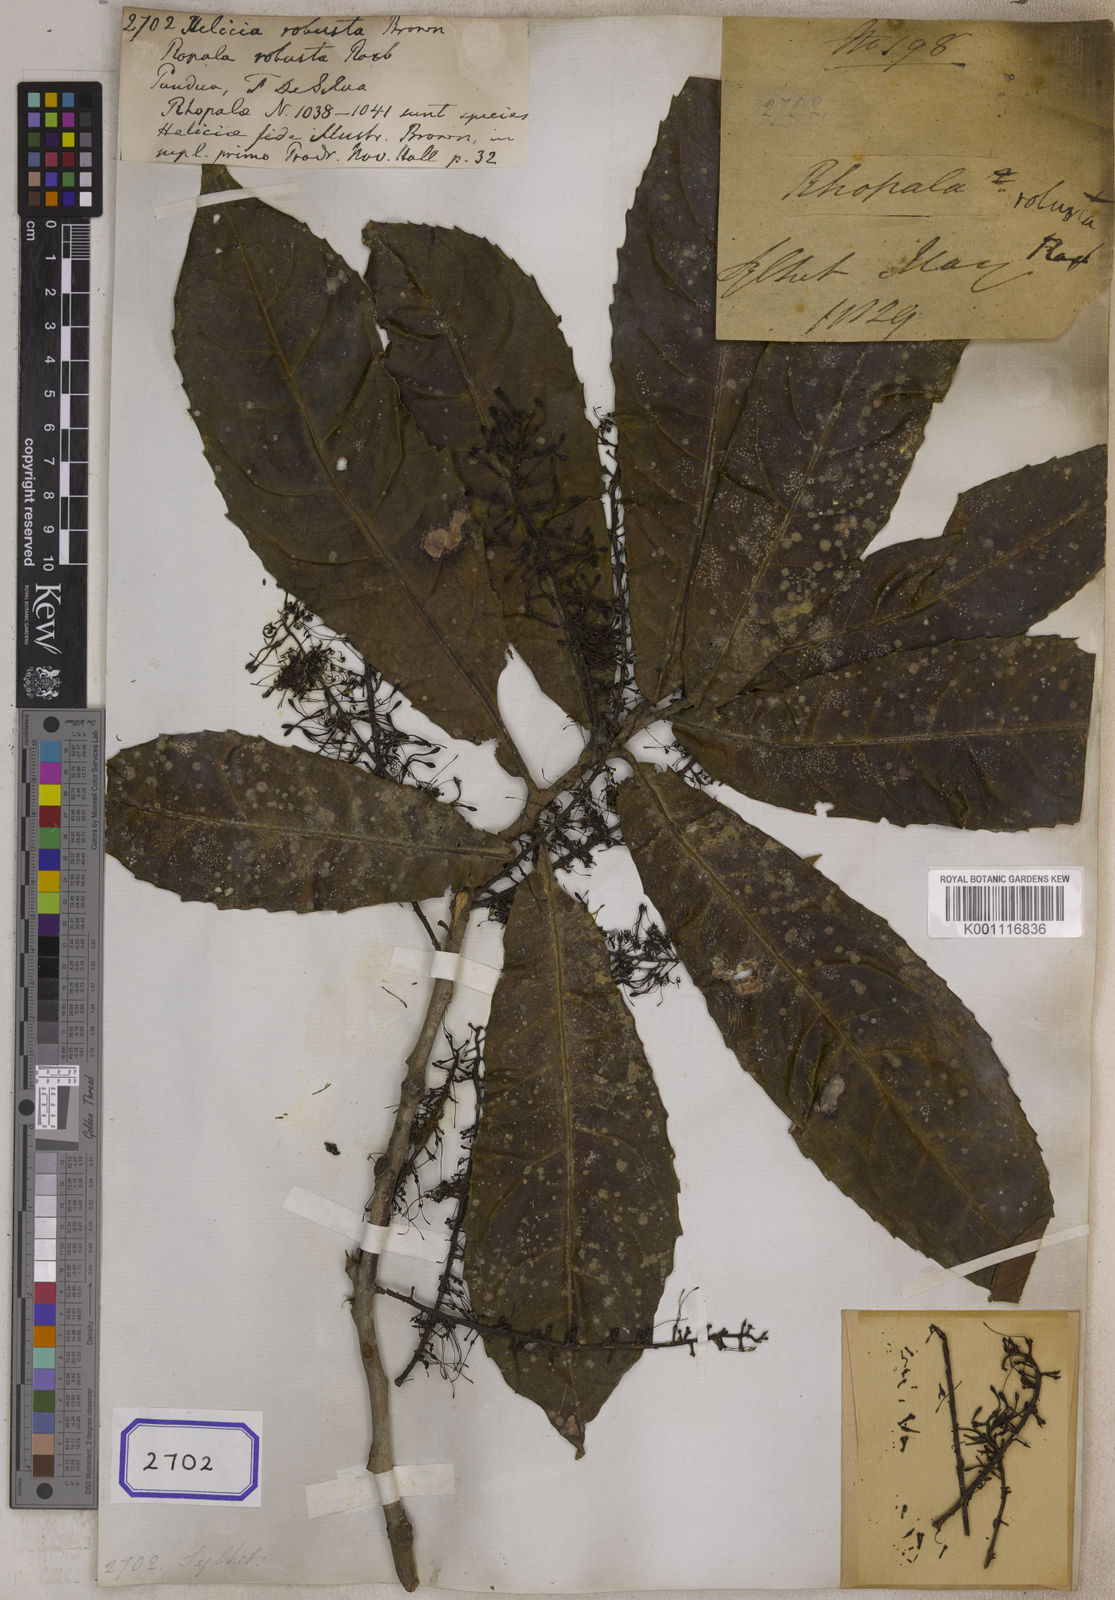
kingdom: Plantae
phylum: Tracheophyta
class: Magnoliopsida
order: Proteales
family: Proteaceae
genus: Helicia
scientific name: Helicia
